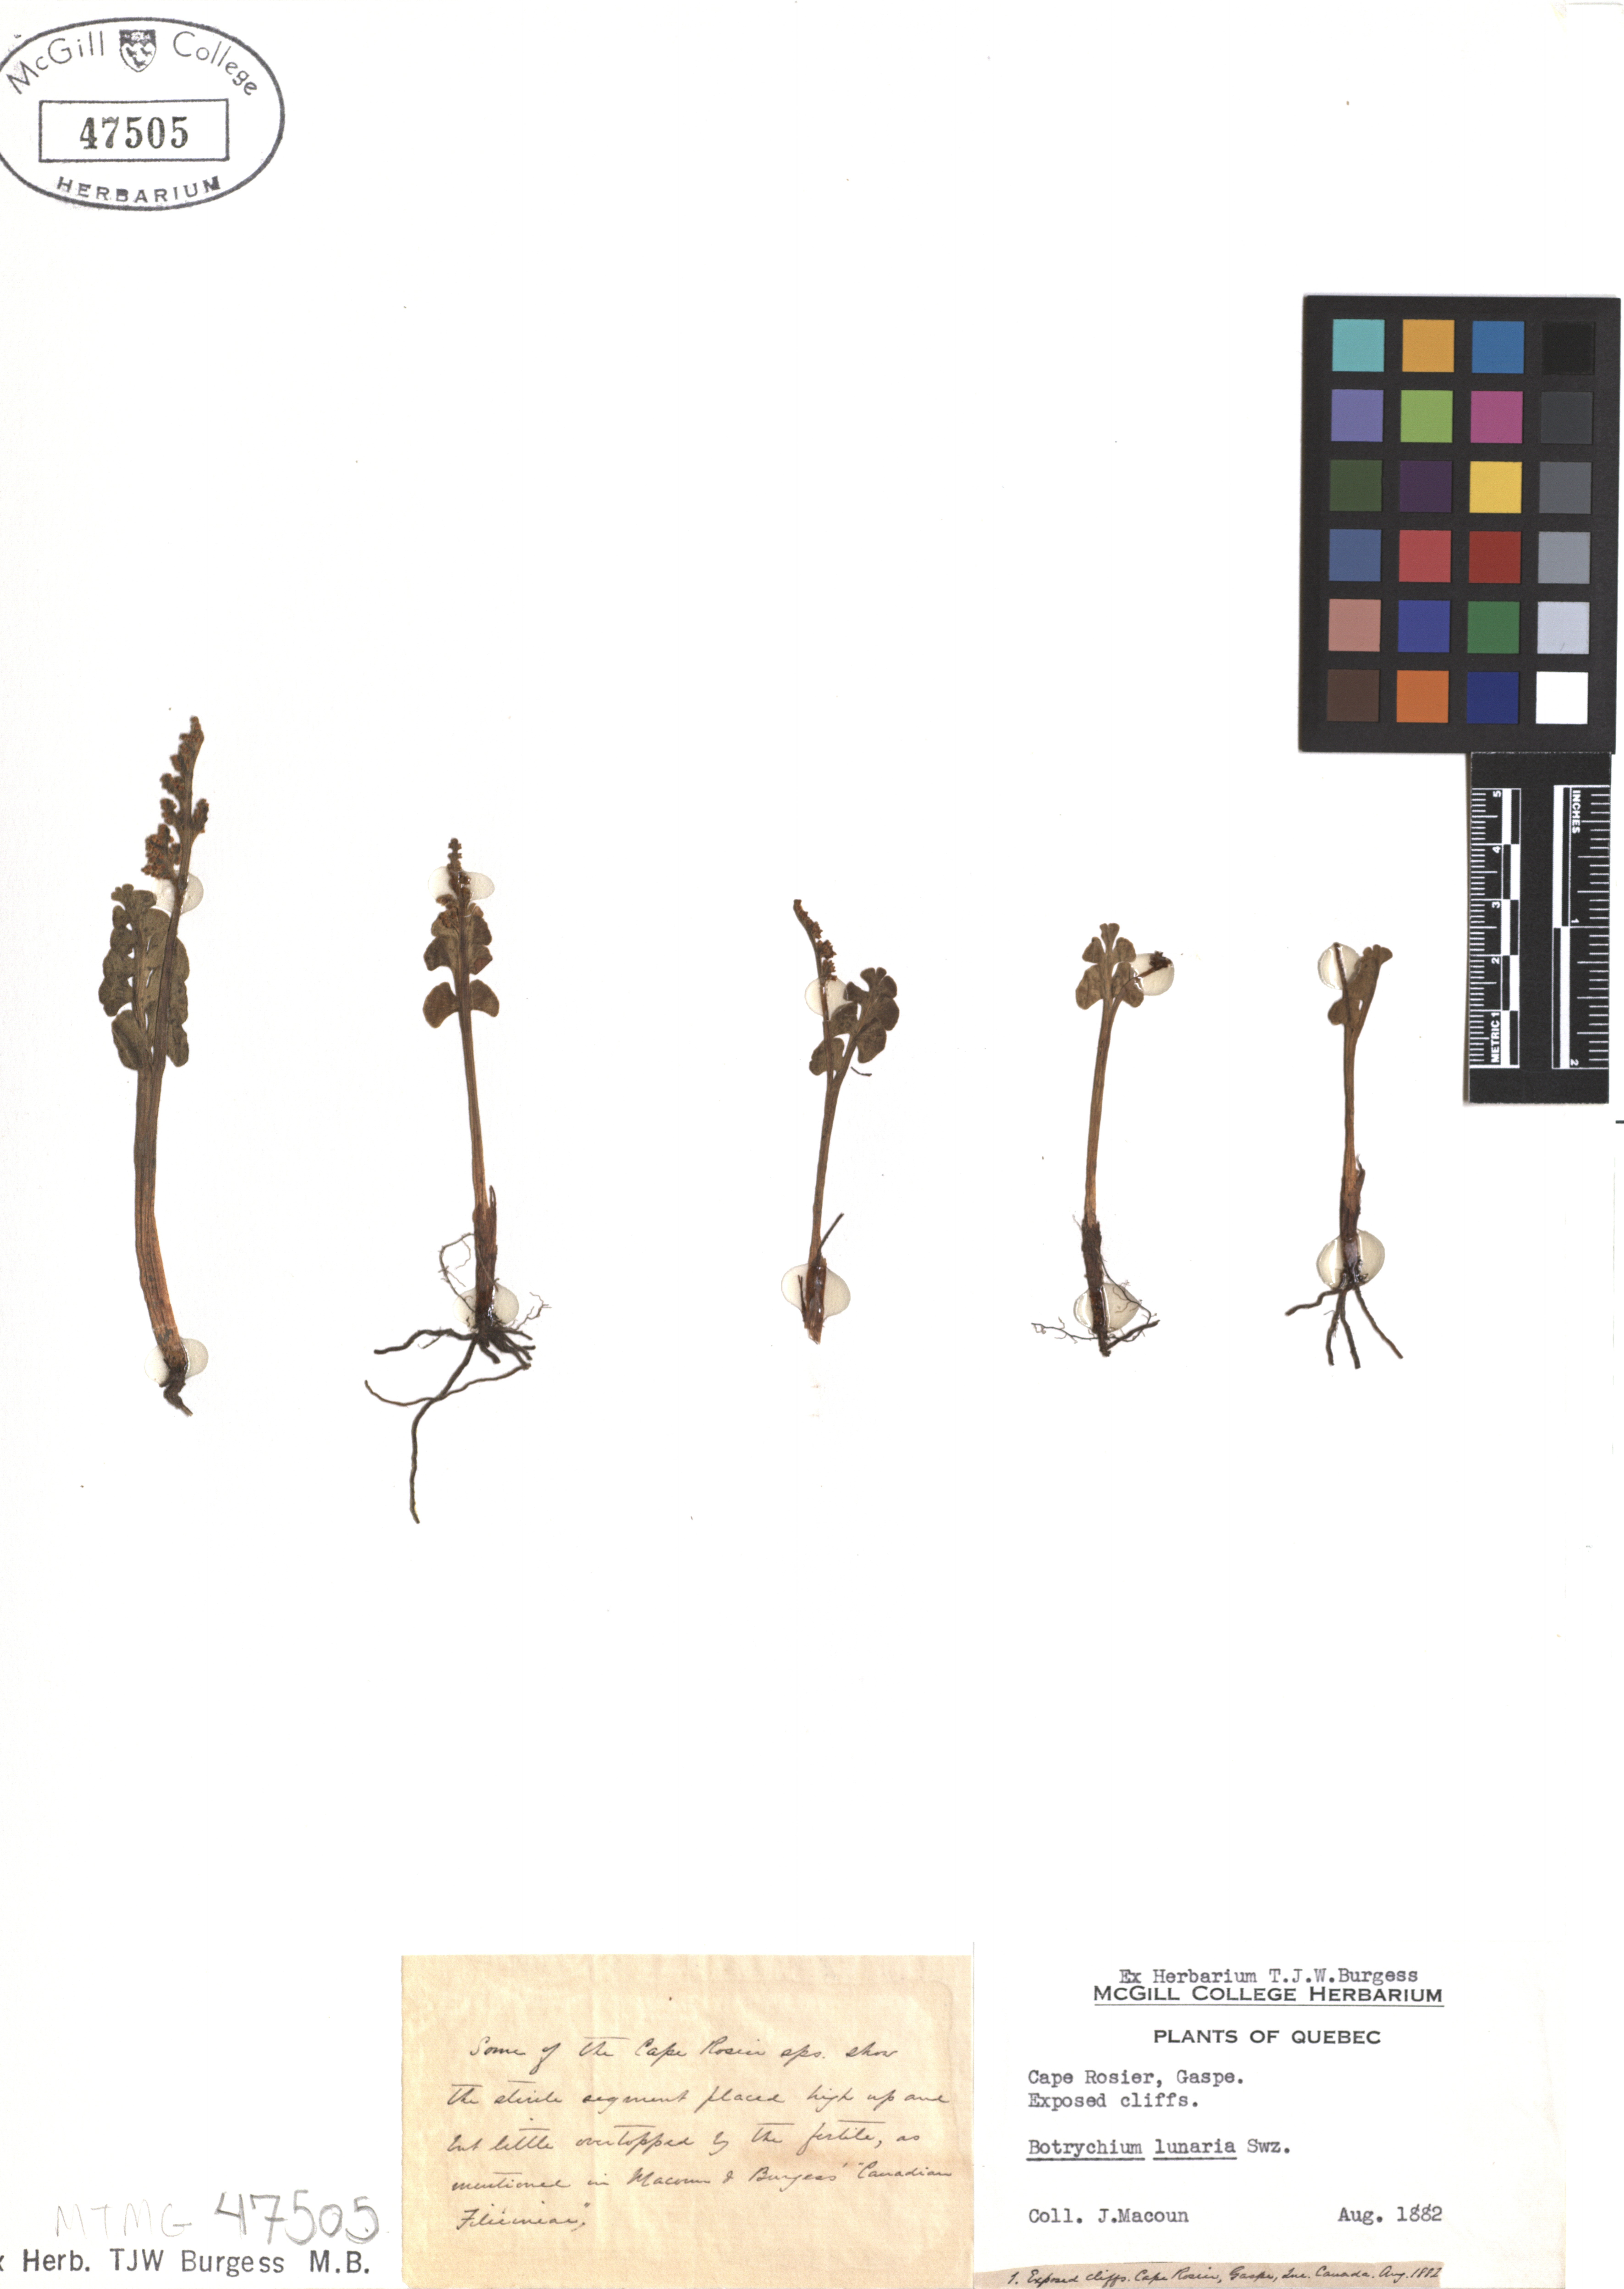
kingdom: Plantae
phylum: Tracheophyta
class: Polypodiopsida
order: Ophioglossales
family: Ophioglossaceae
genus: Botrychium
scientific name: Botrychium lunaria
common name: Moonwort
